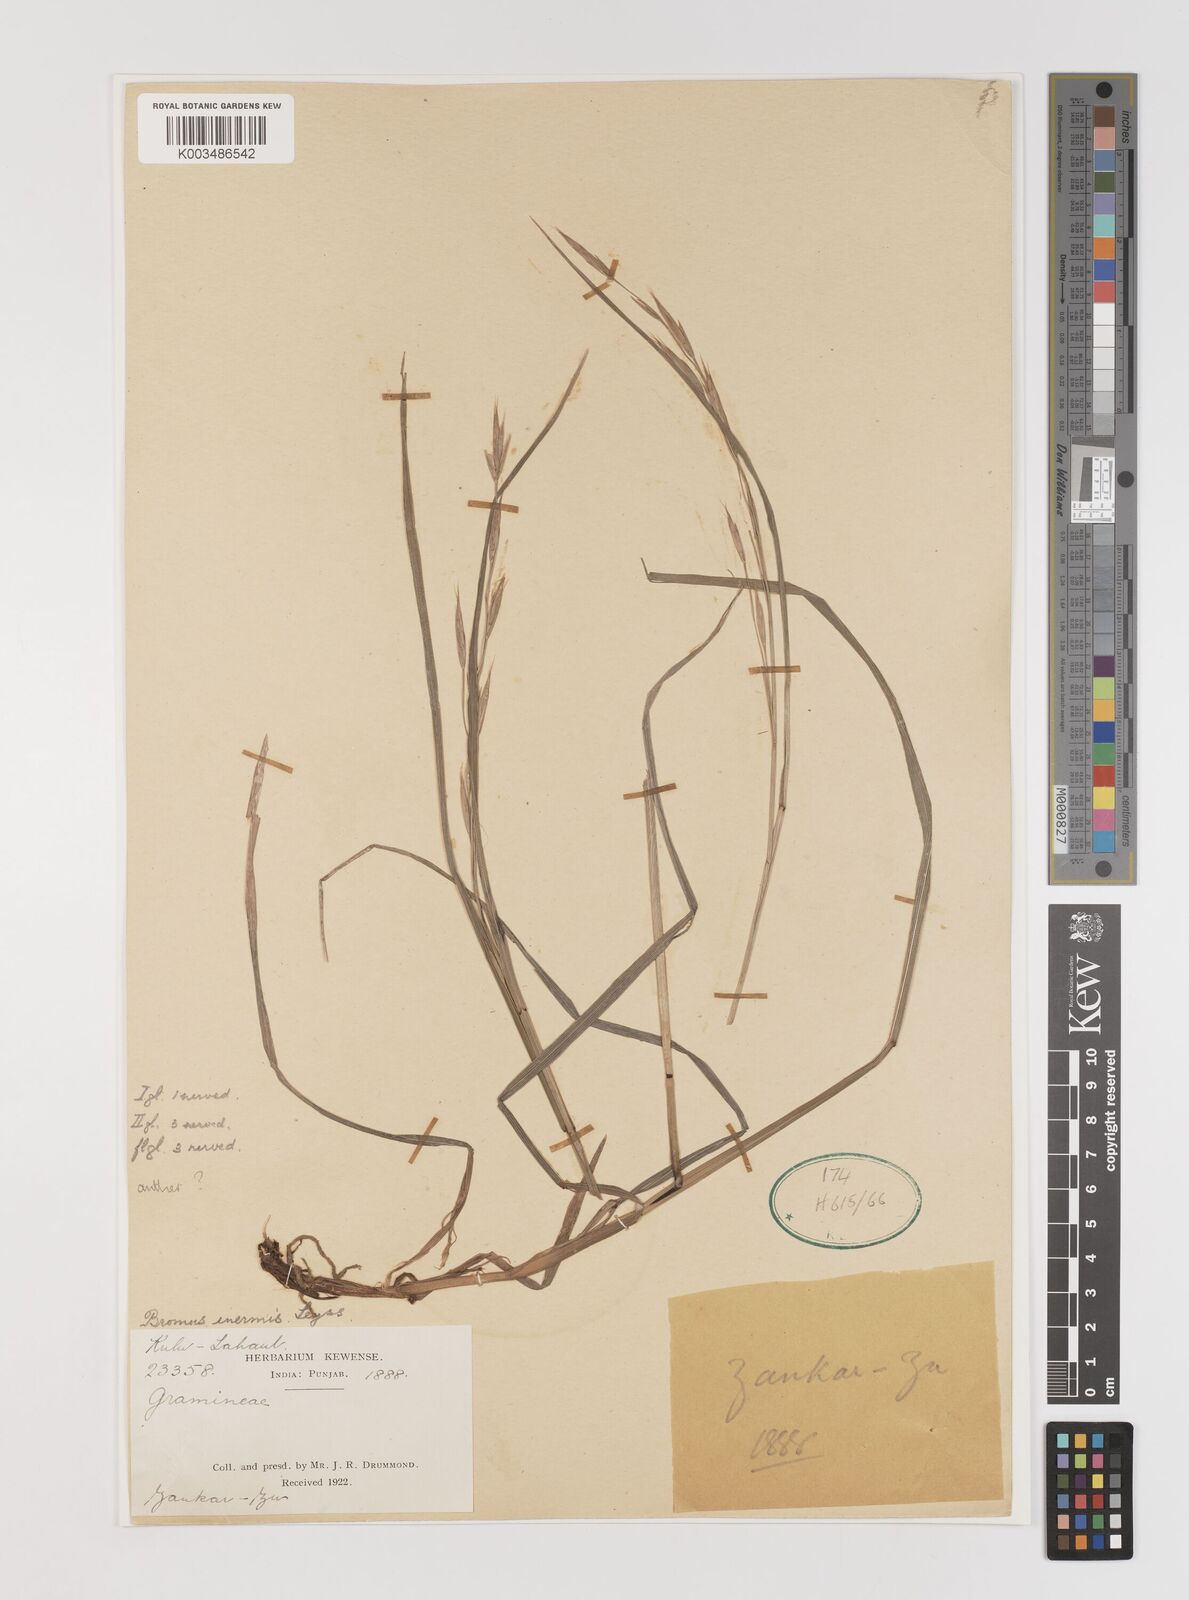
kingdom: Plantae
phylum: Tracheophyta
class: Liliopsida
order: Poales
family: Poaceae
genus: Bromus
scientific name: Bromus inermis
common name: Smooth brome
